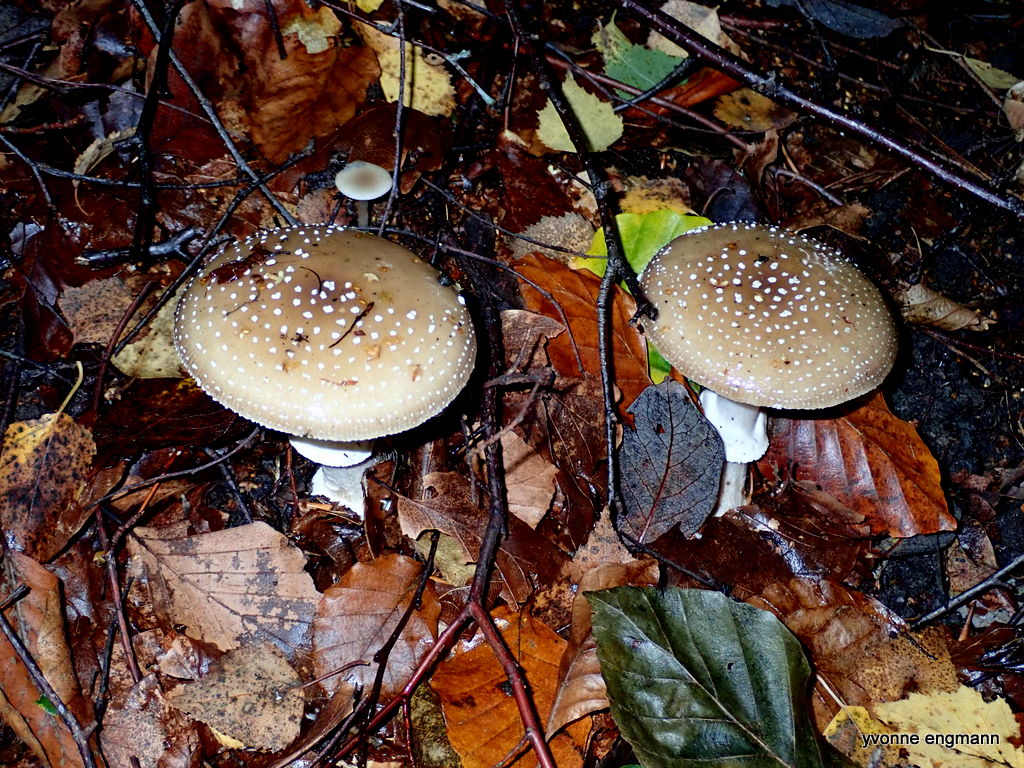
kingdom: Fungi
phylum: Basidiomycota
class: Agaricomycetes
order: Agaricales
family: Amanitaceae
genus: Amanita
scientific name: Amanita pantherina
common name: panter-fluesvamp
